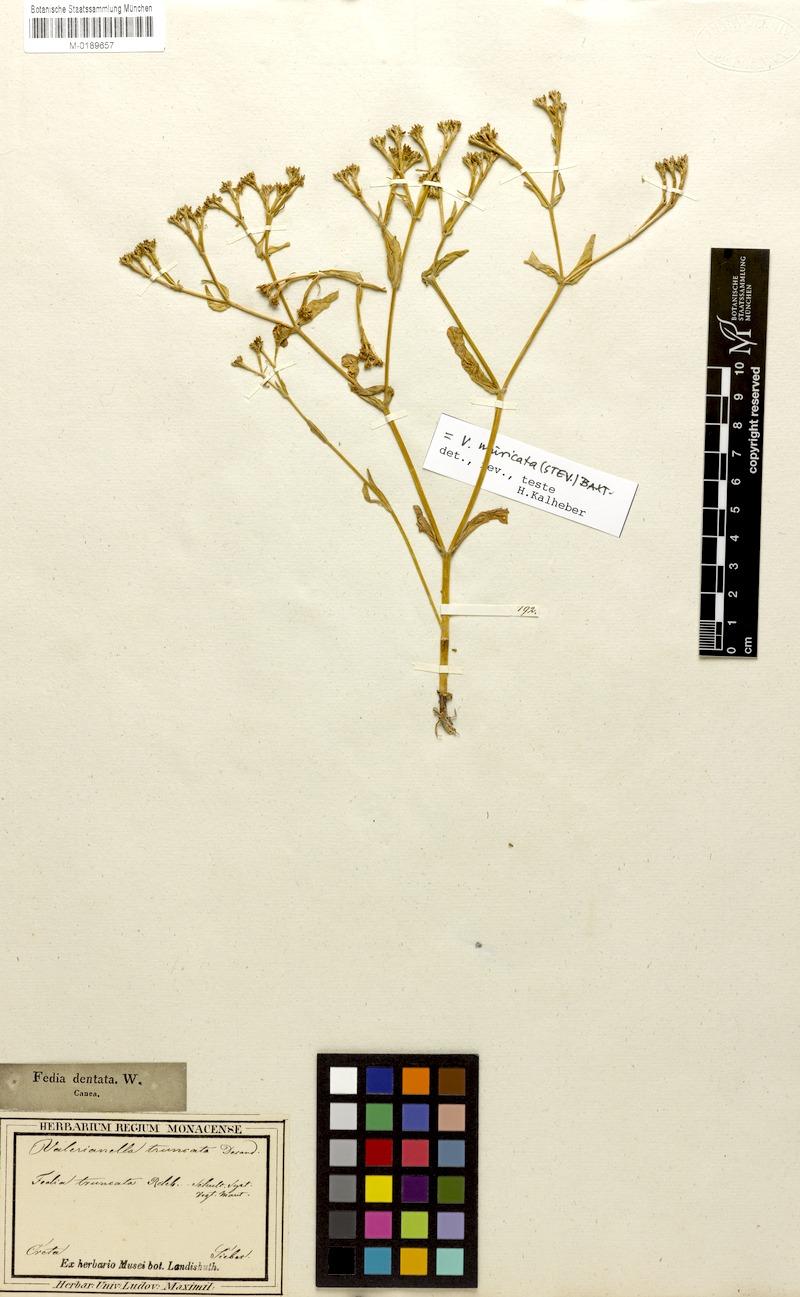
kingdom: Plantae
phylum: Tracheophyta
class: Magnoliopsida
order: Dipsacales
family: Caprifoliaceae
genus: Valerianella
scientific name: Valerianella eriocarpa
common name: Hairy-fruited cornsalad
